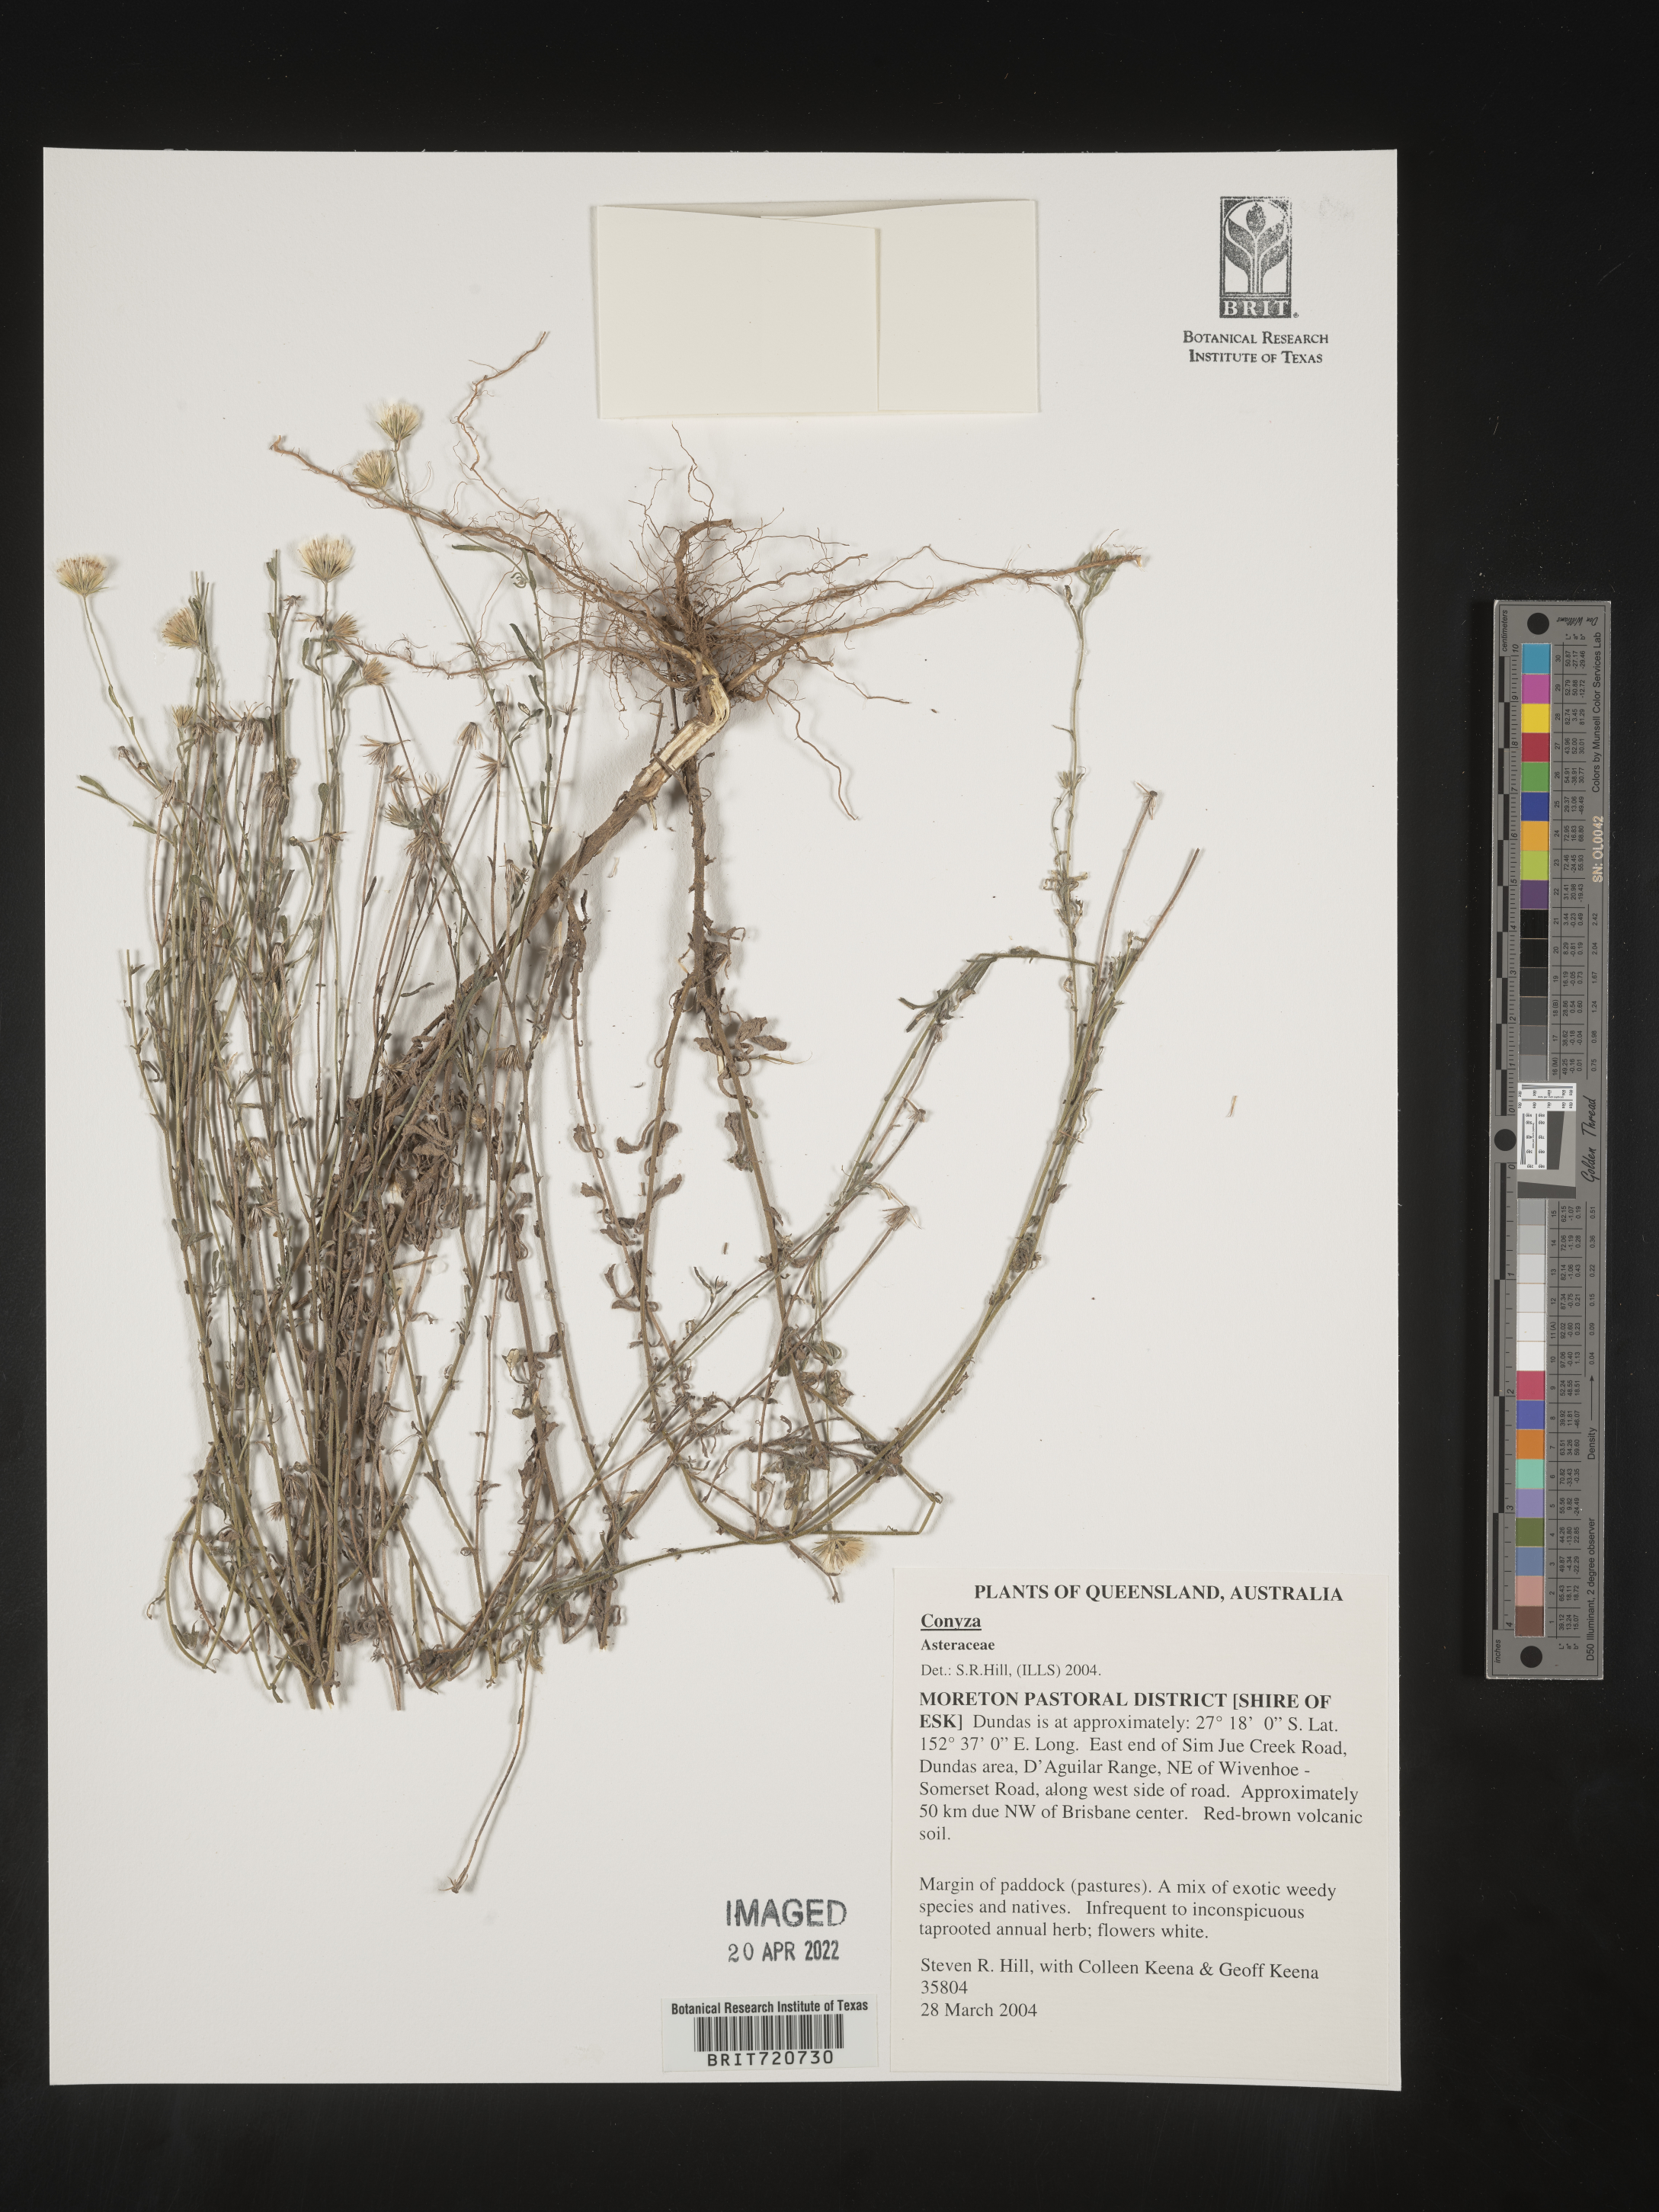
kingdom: Plantae
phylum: Tracheophyta
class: Magnoliopsida
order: Asterales
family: Asteraceae
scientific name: Asteraceae
